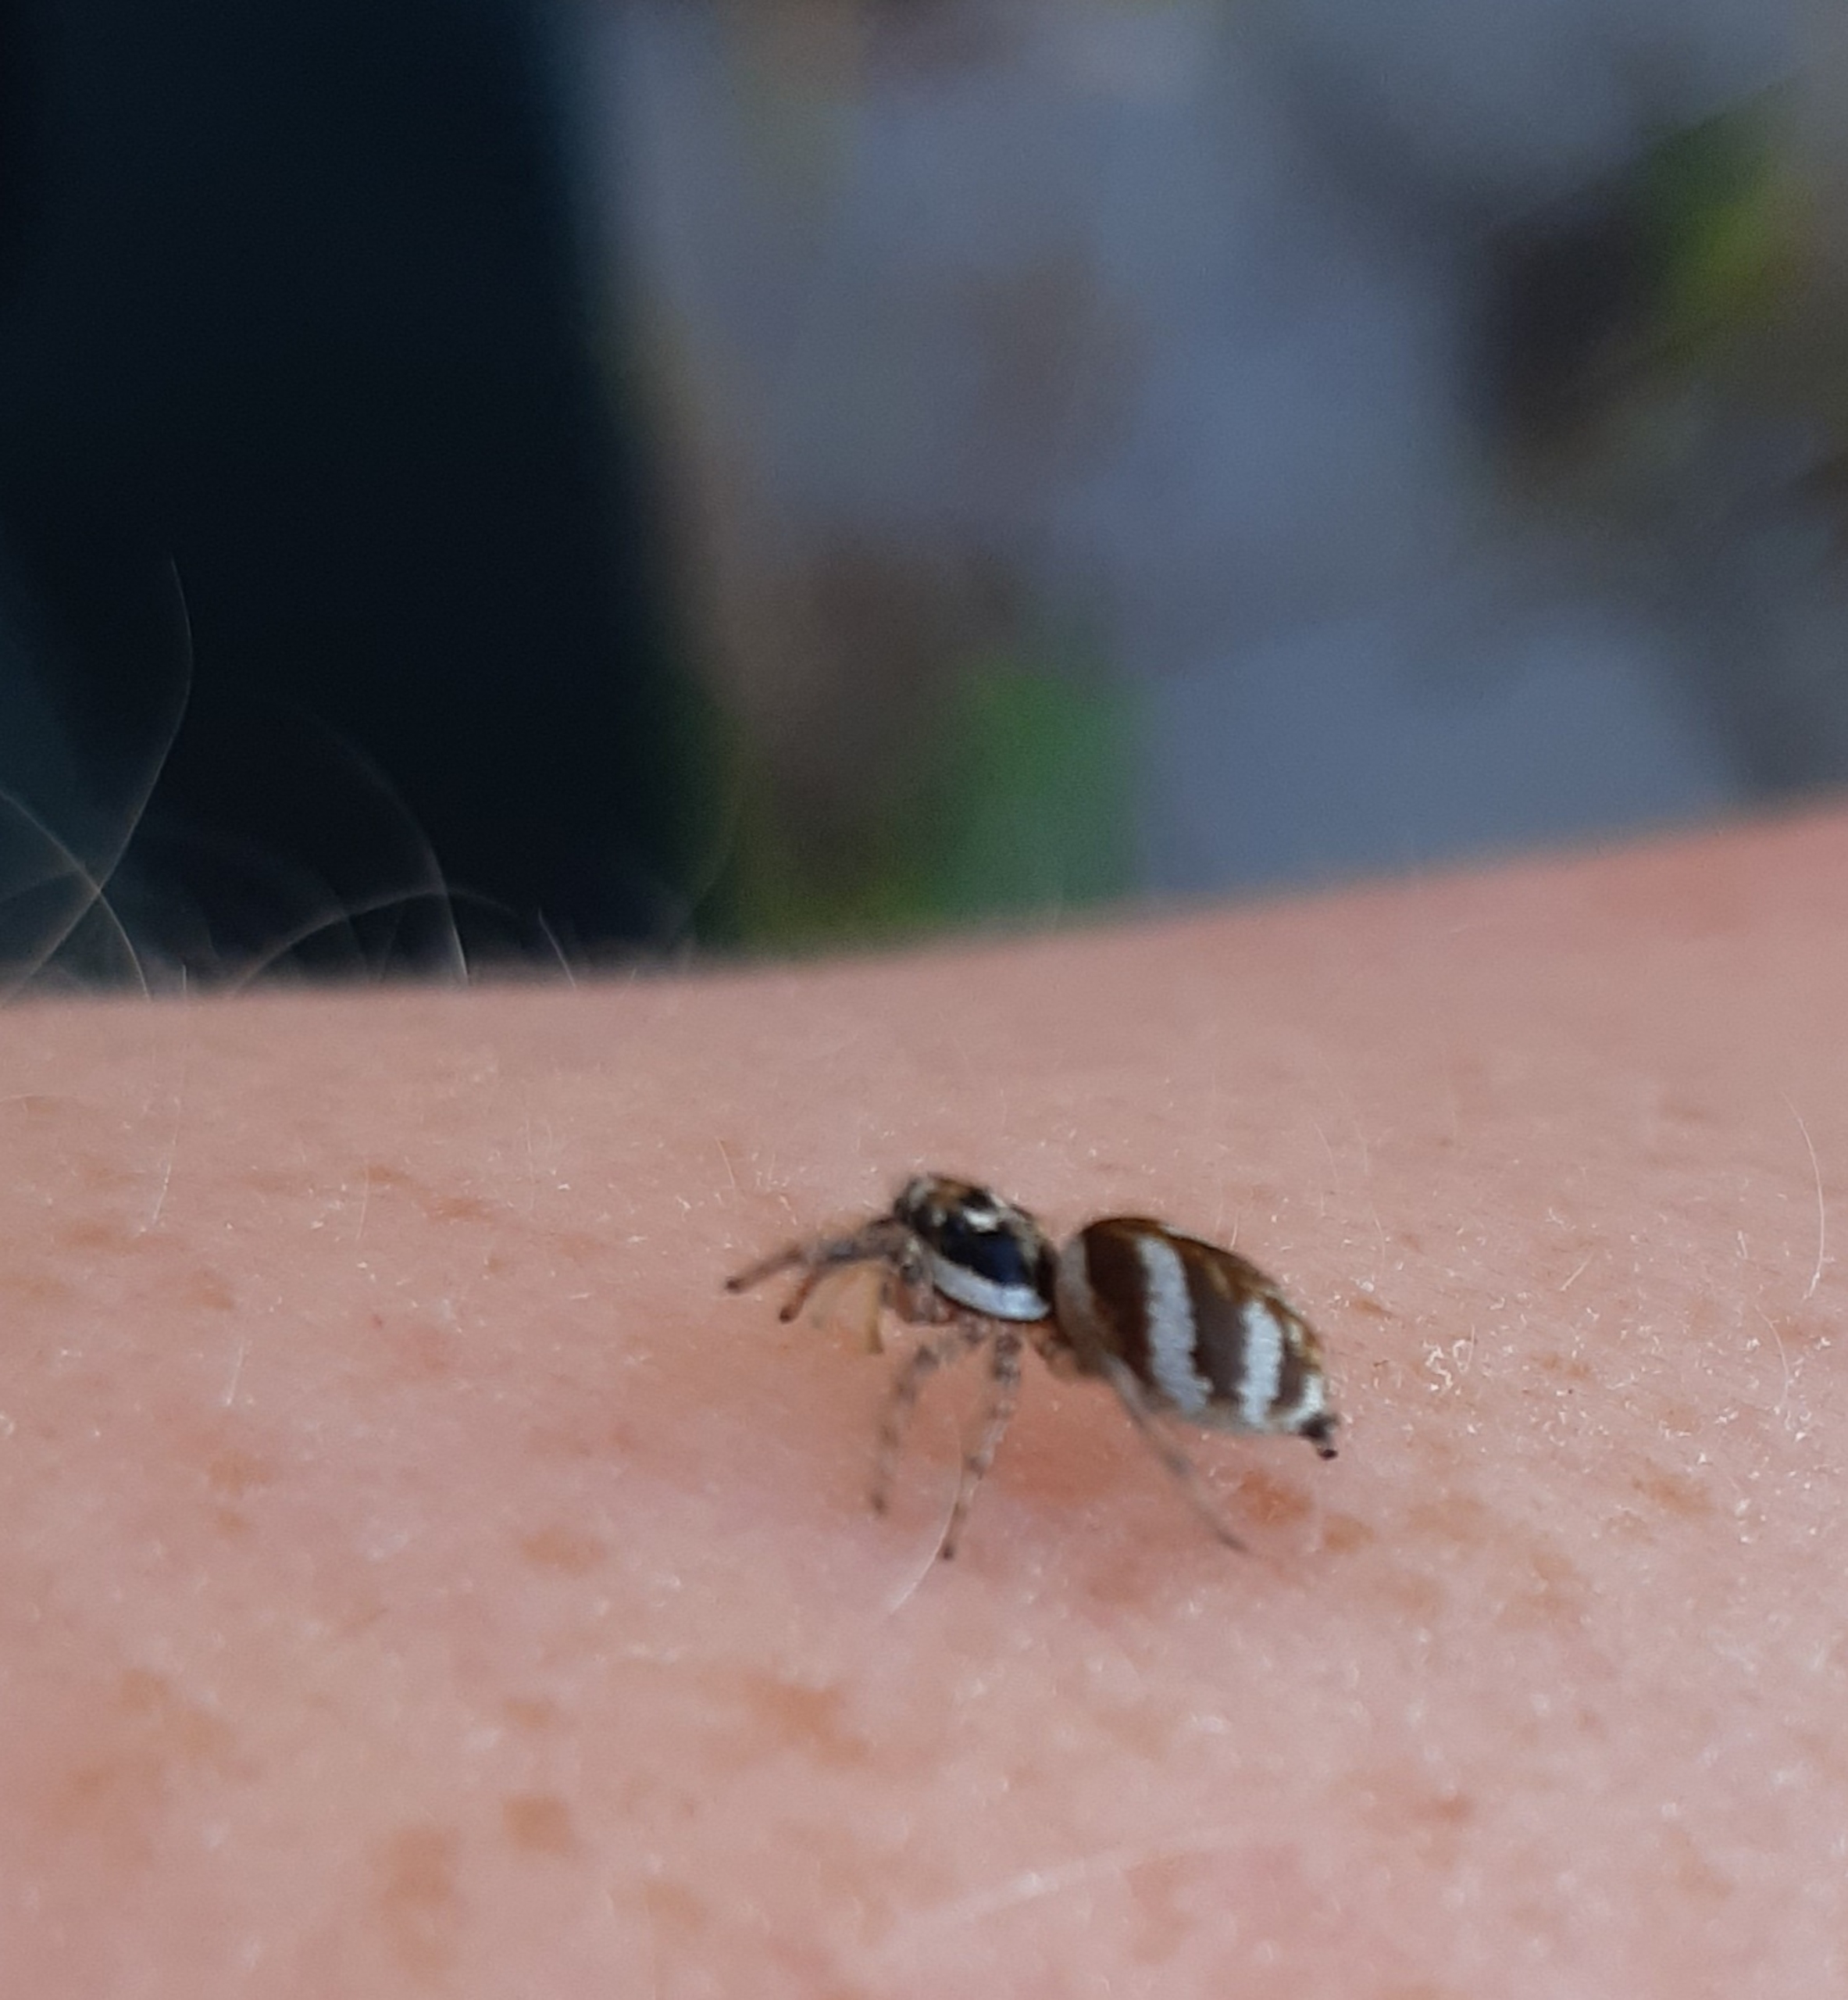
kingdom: Animalia
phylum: Arthropoda
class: Arachnida
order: Araneae
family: Salticidae
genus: Salticus
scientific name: Salticus scenicus
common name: Almindelig zebraedderkop
